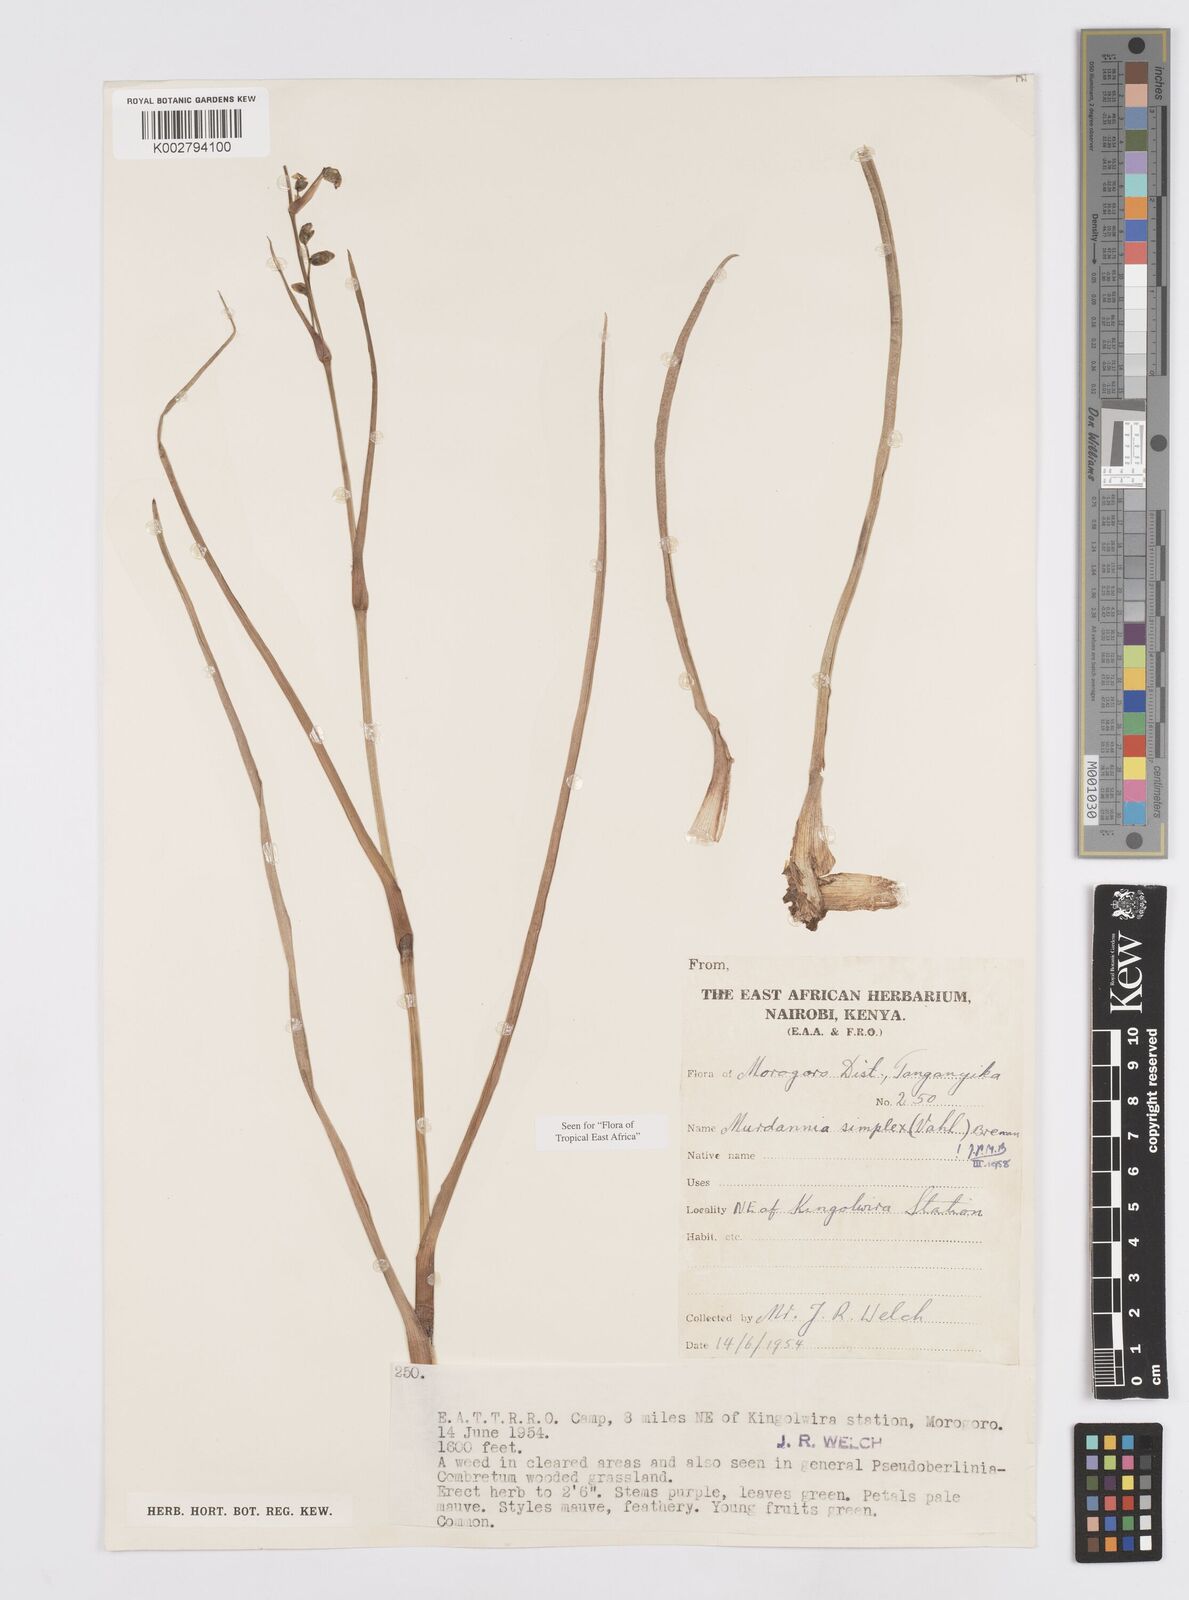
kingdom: Plantae
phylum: Tracheophyta
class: Liliopsida
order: Commelinales
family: Commelinaceae
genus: Murdannia
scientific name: Murdannia simplex
